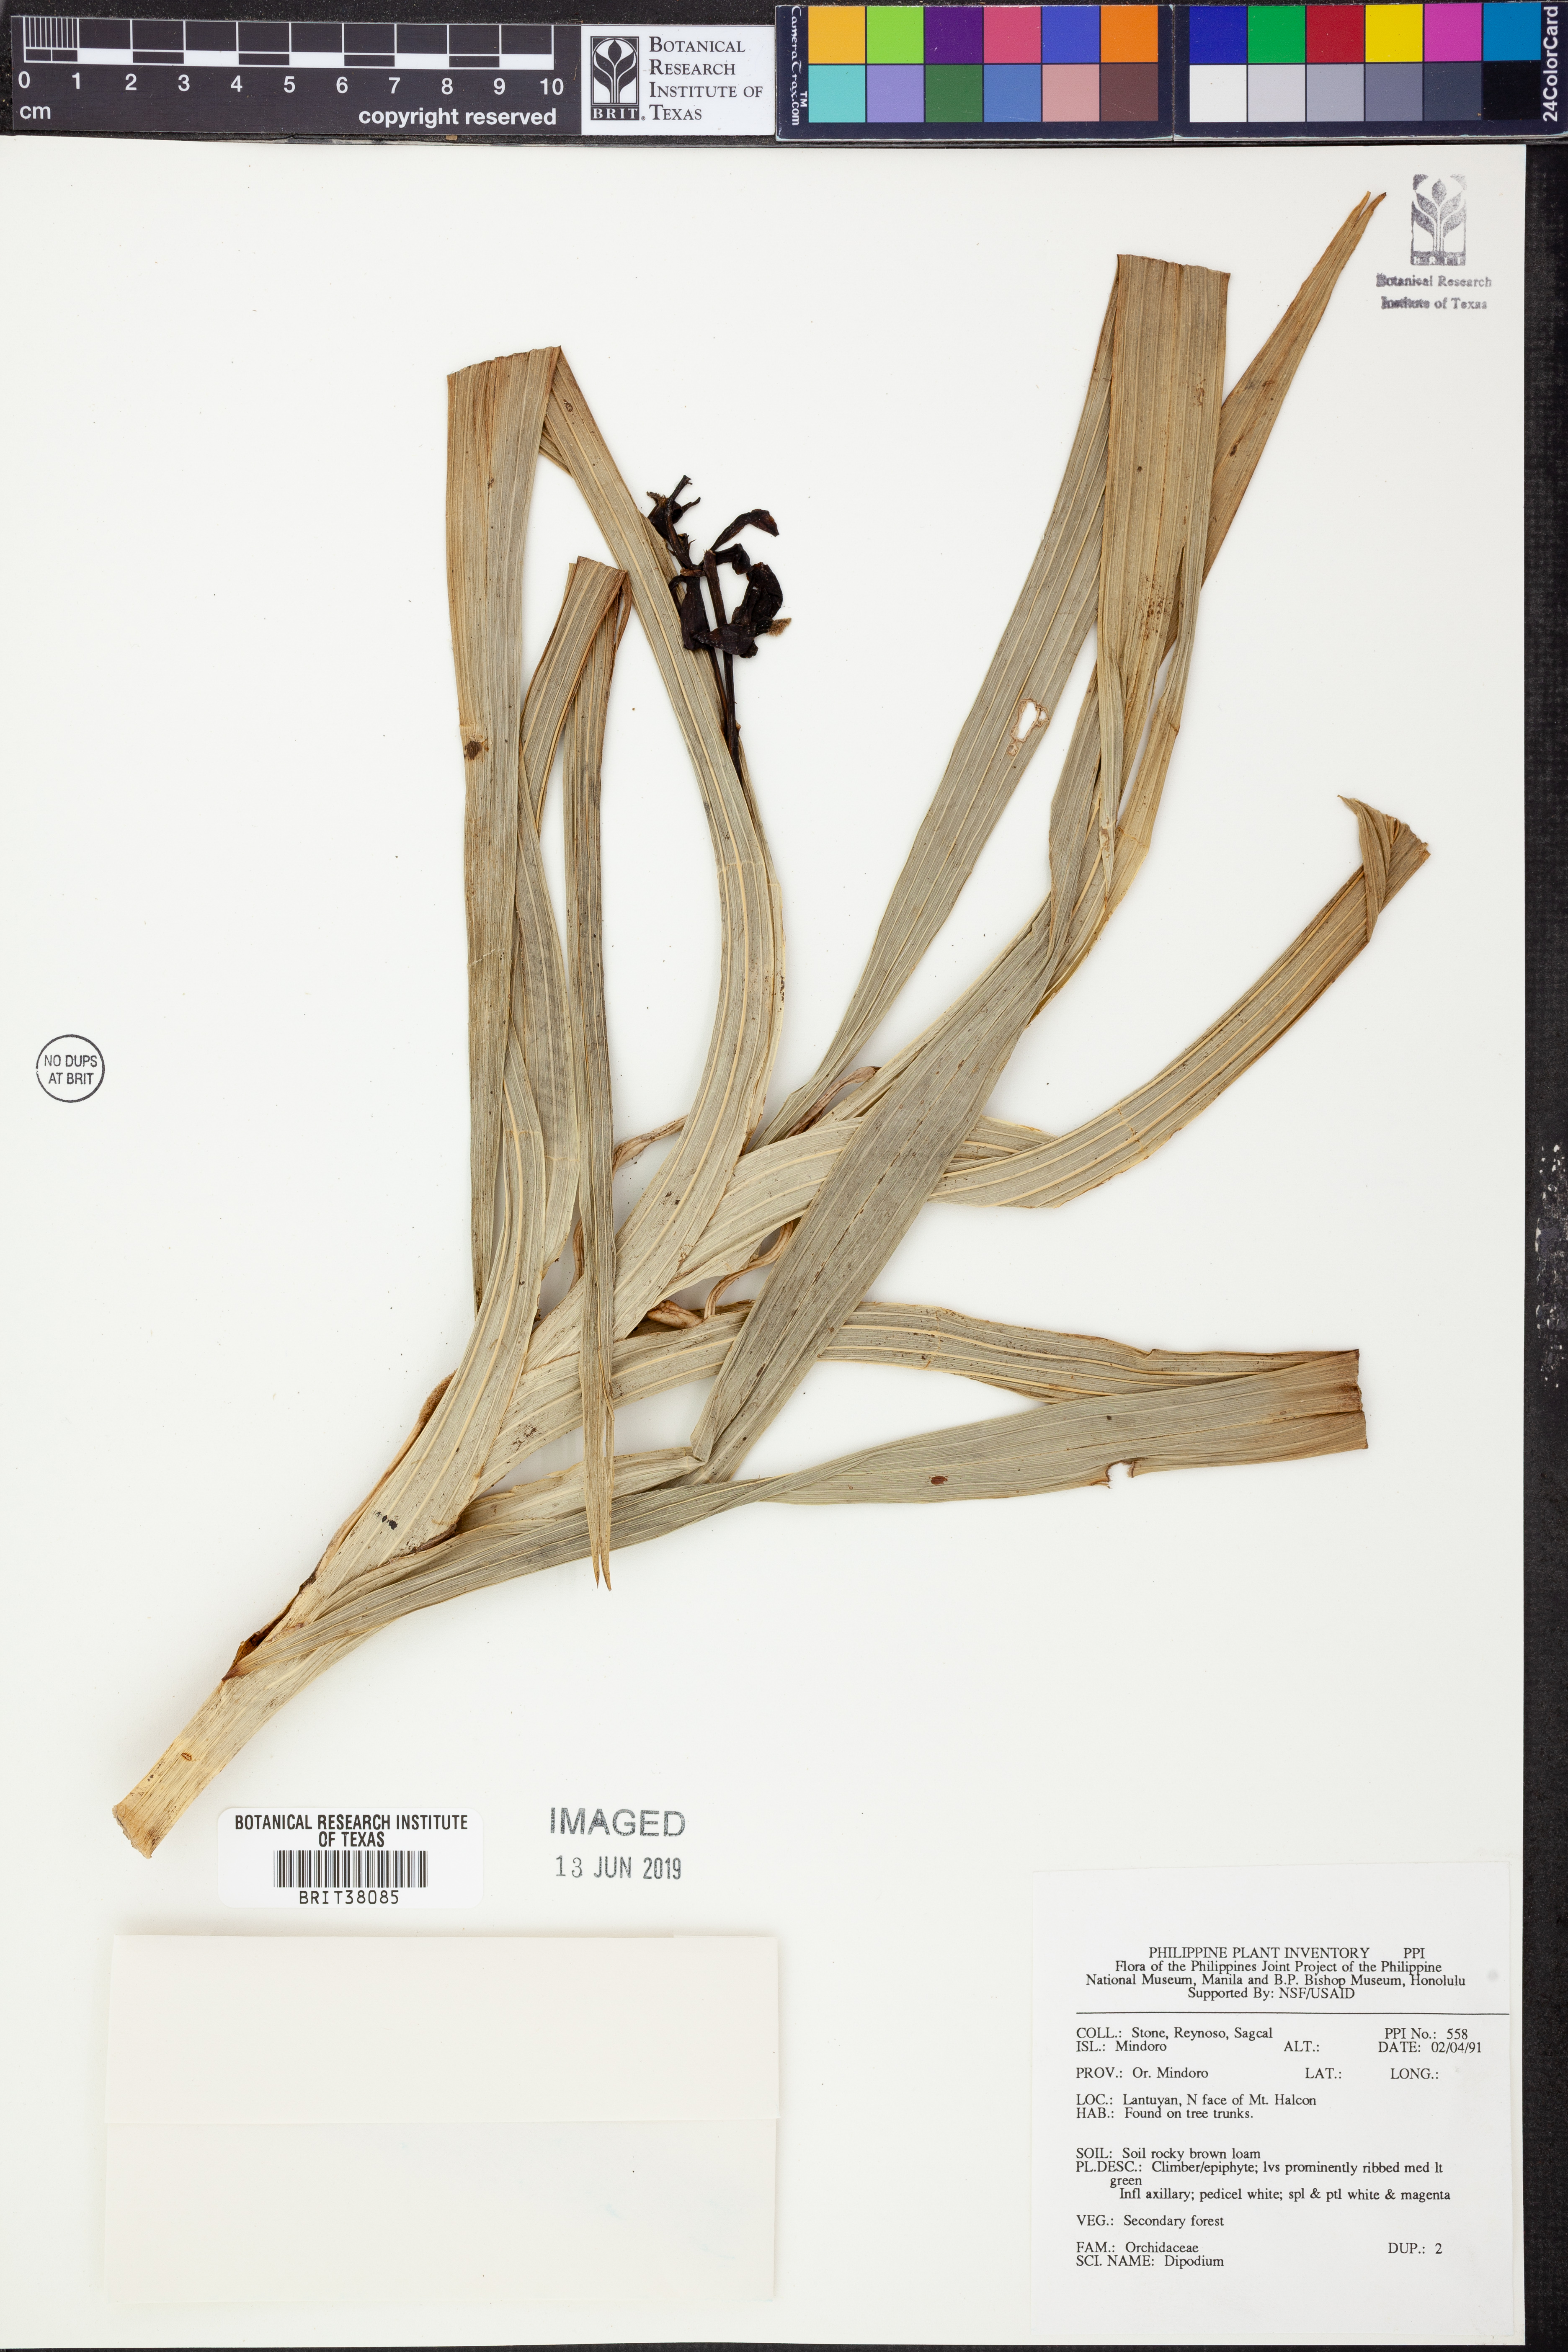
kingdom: Plantae
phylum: Tracheophyta
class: Liliopsida
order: Asparagales
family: Orchidaceae
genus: Dipodium
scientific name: Dipodium
